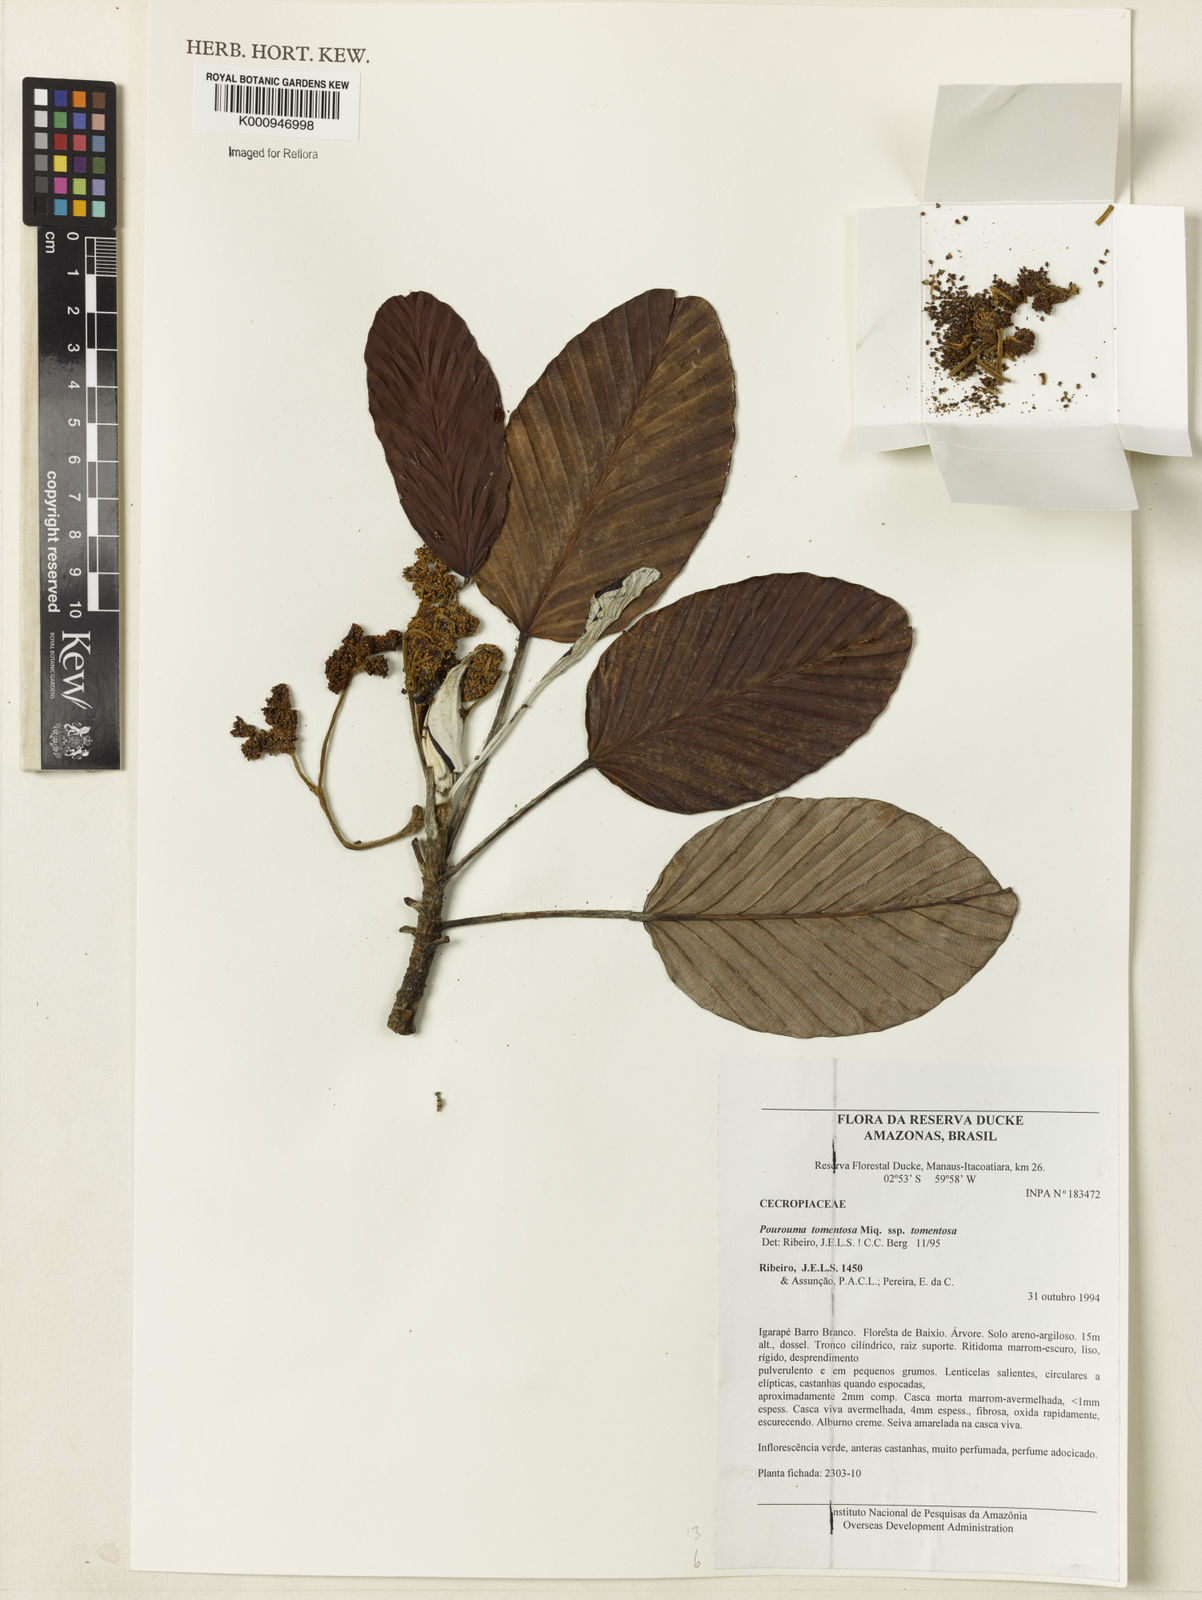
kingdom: Plantae
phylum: Tracheophyta
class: Magnoliopsida
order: Rosales
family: Urticaceae
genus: Pourouma
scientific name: Pourouma tomentosa
